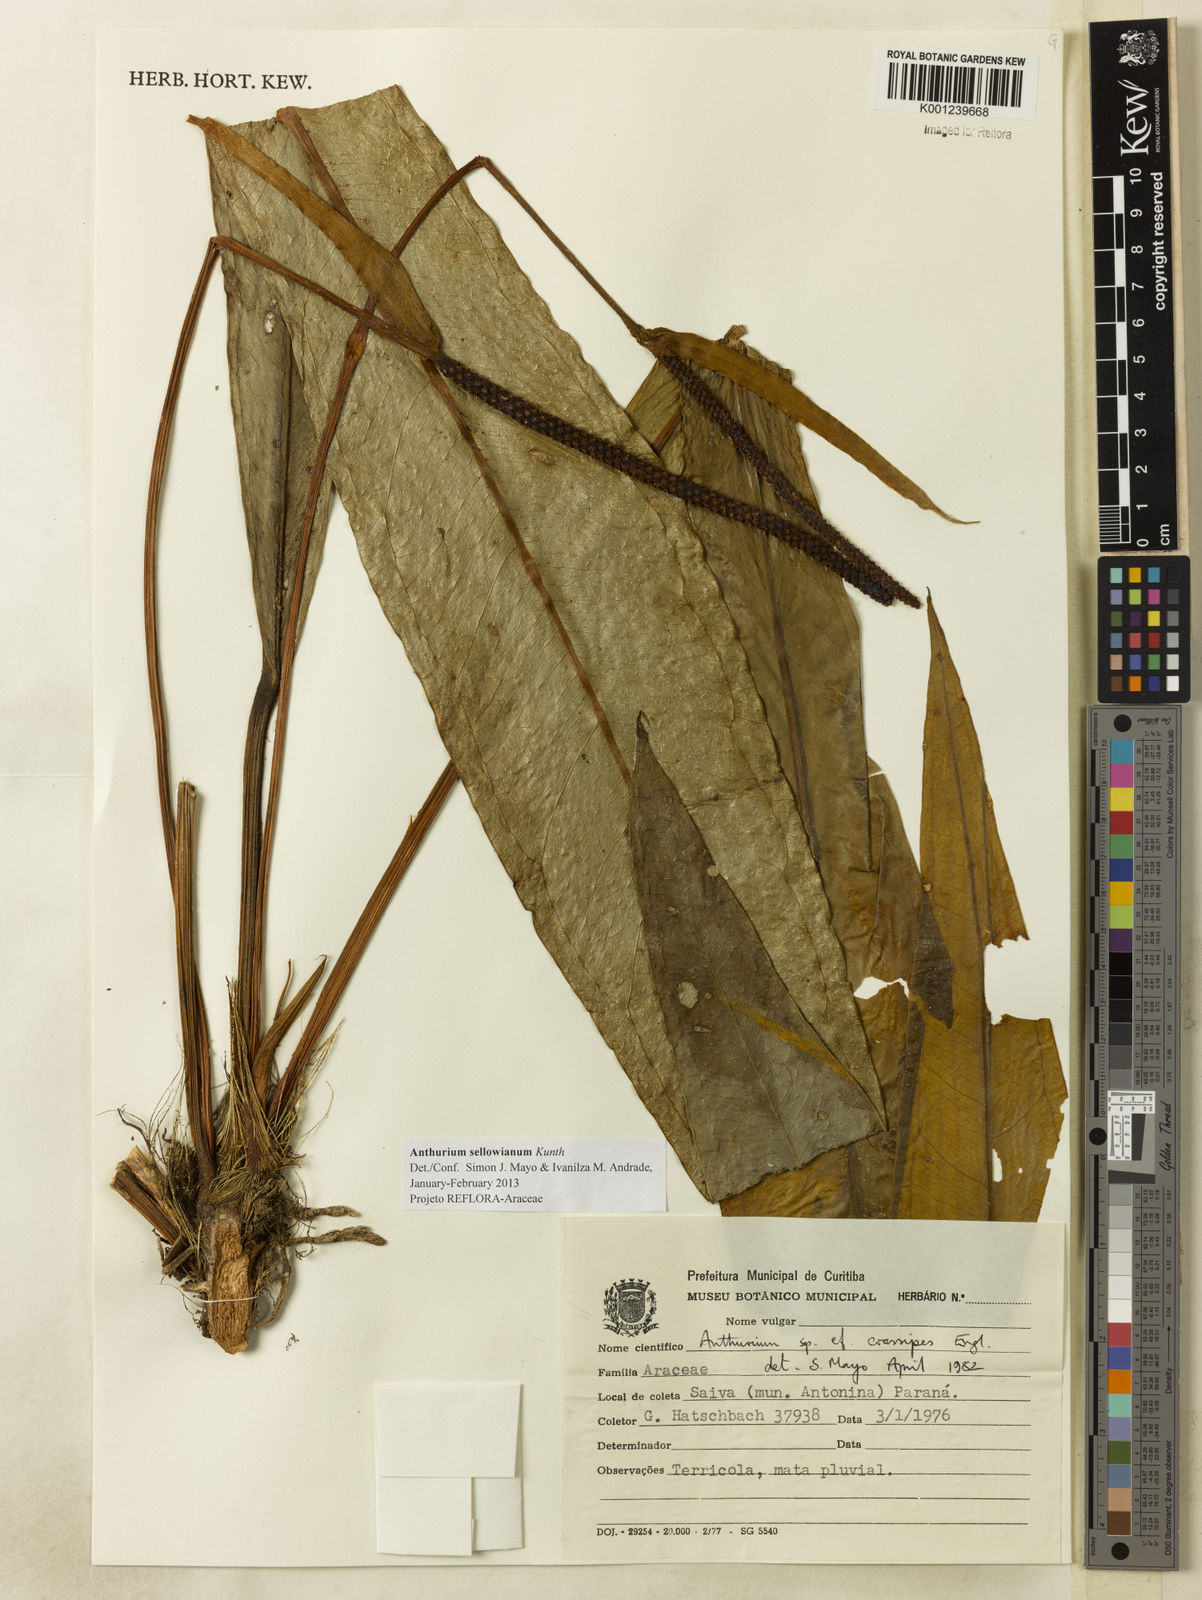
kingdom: Plantae
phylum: Tracheophyta
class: Liliopsida
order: Alismatales
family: Araceae
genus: Anthurium
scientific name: Anthurium sellowianum
